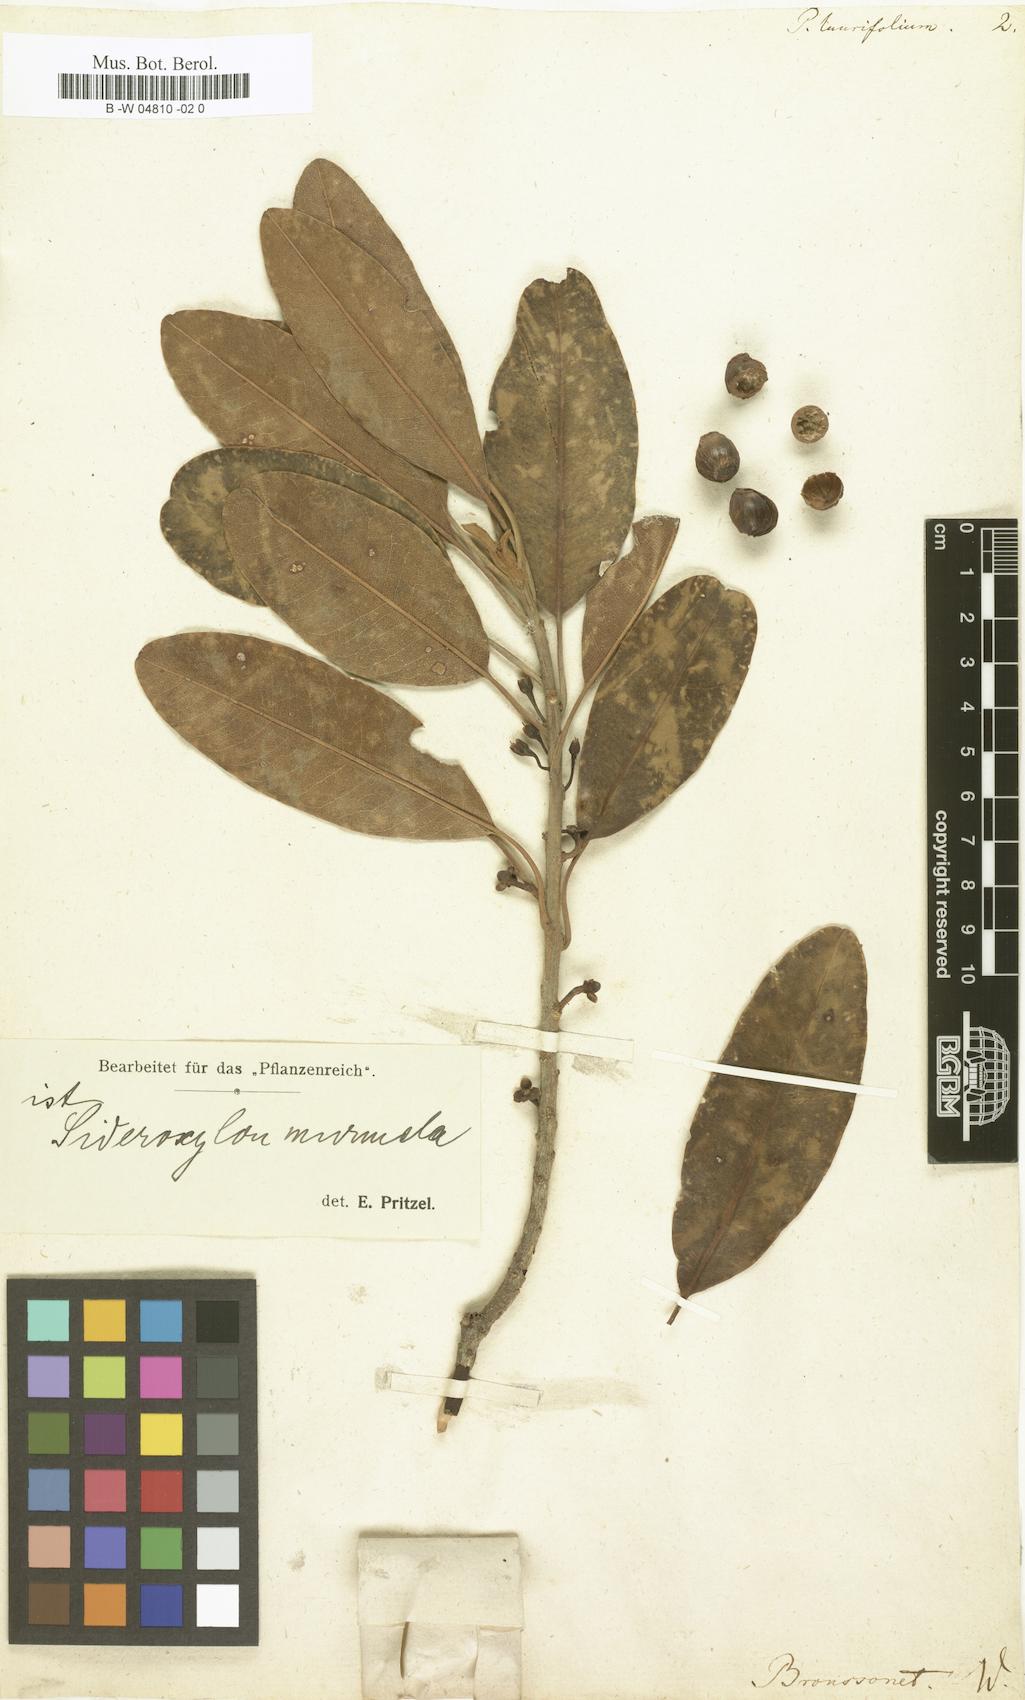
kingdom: Plantae
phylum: Tracheophyta
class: Magnoliopsida
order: Apiales
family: Pittosporaceae
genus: Pittosporum
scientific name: Pittosporum laurifolium
